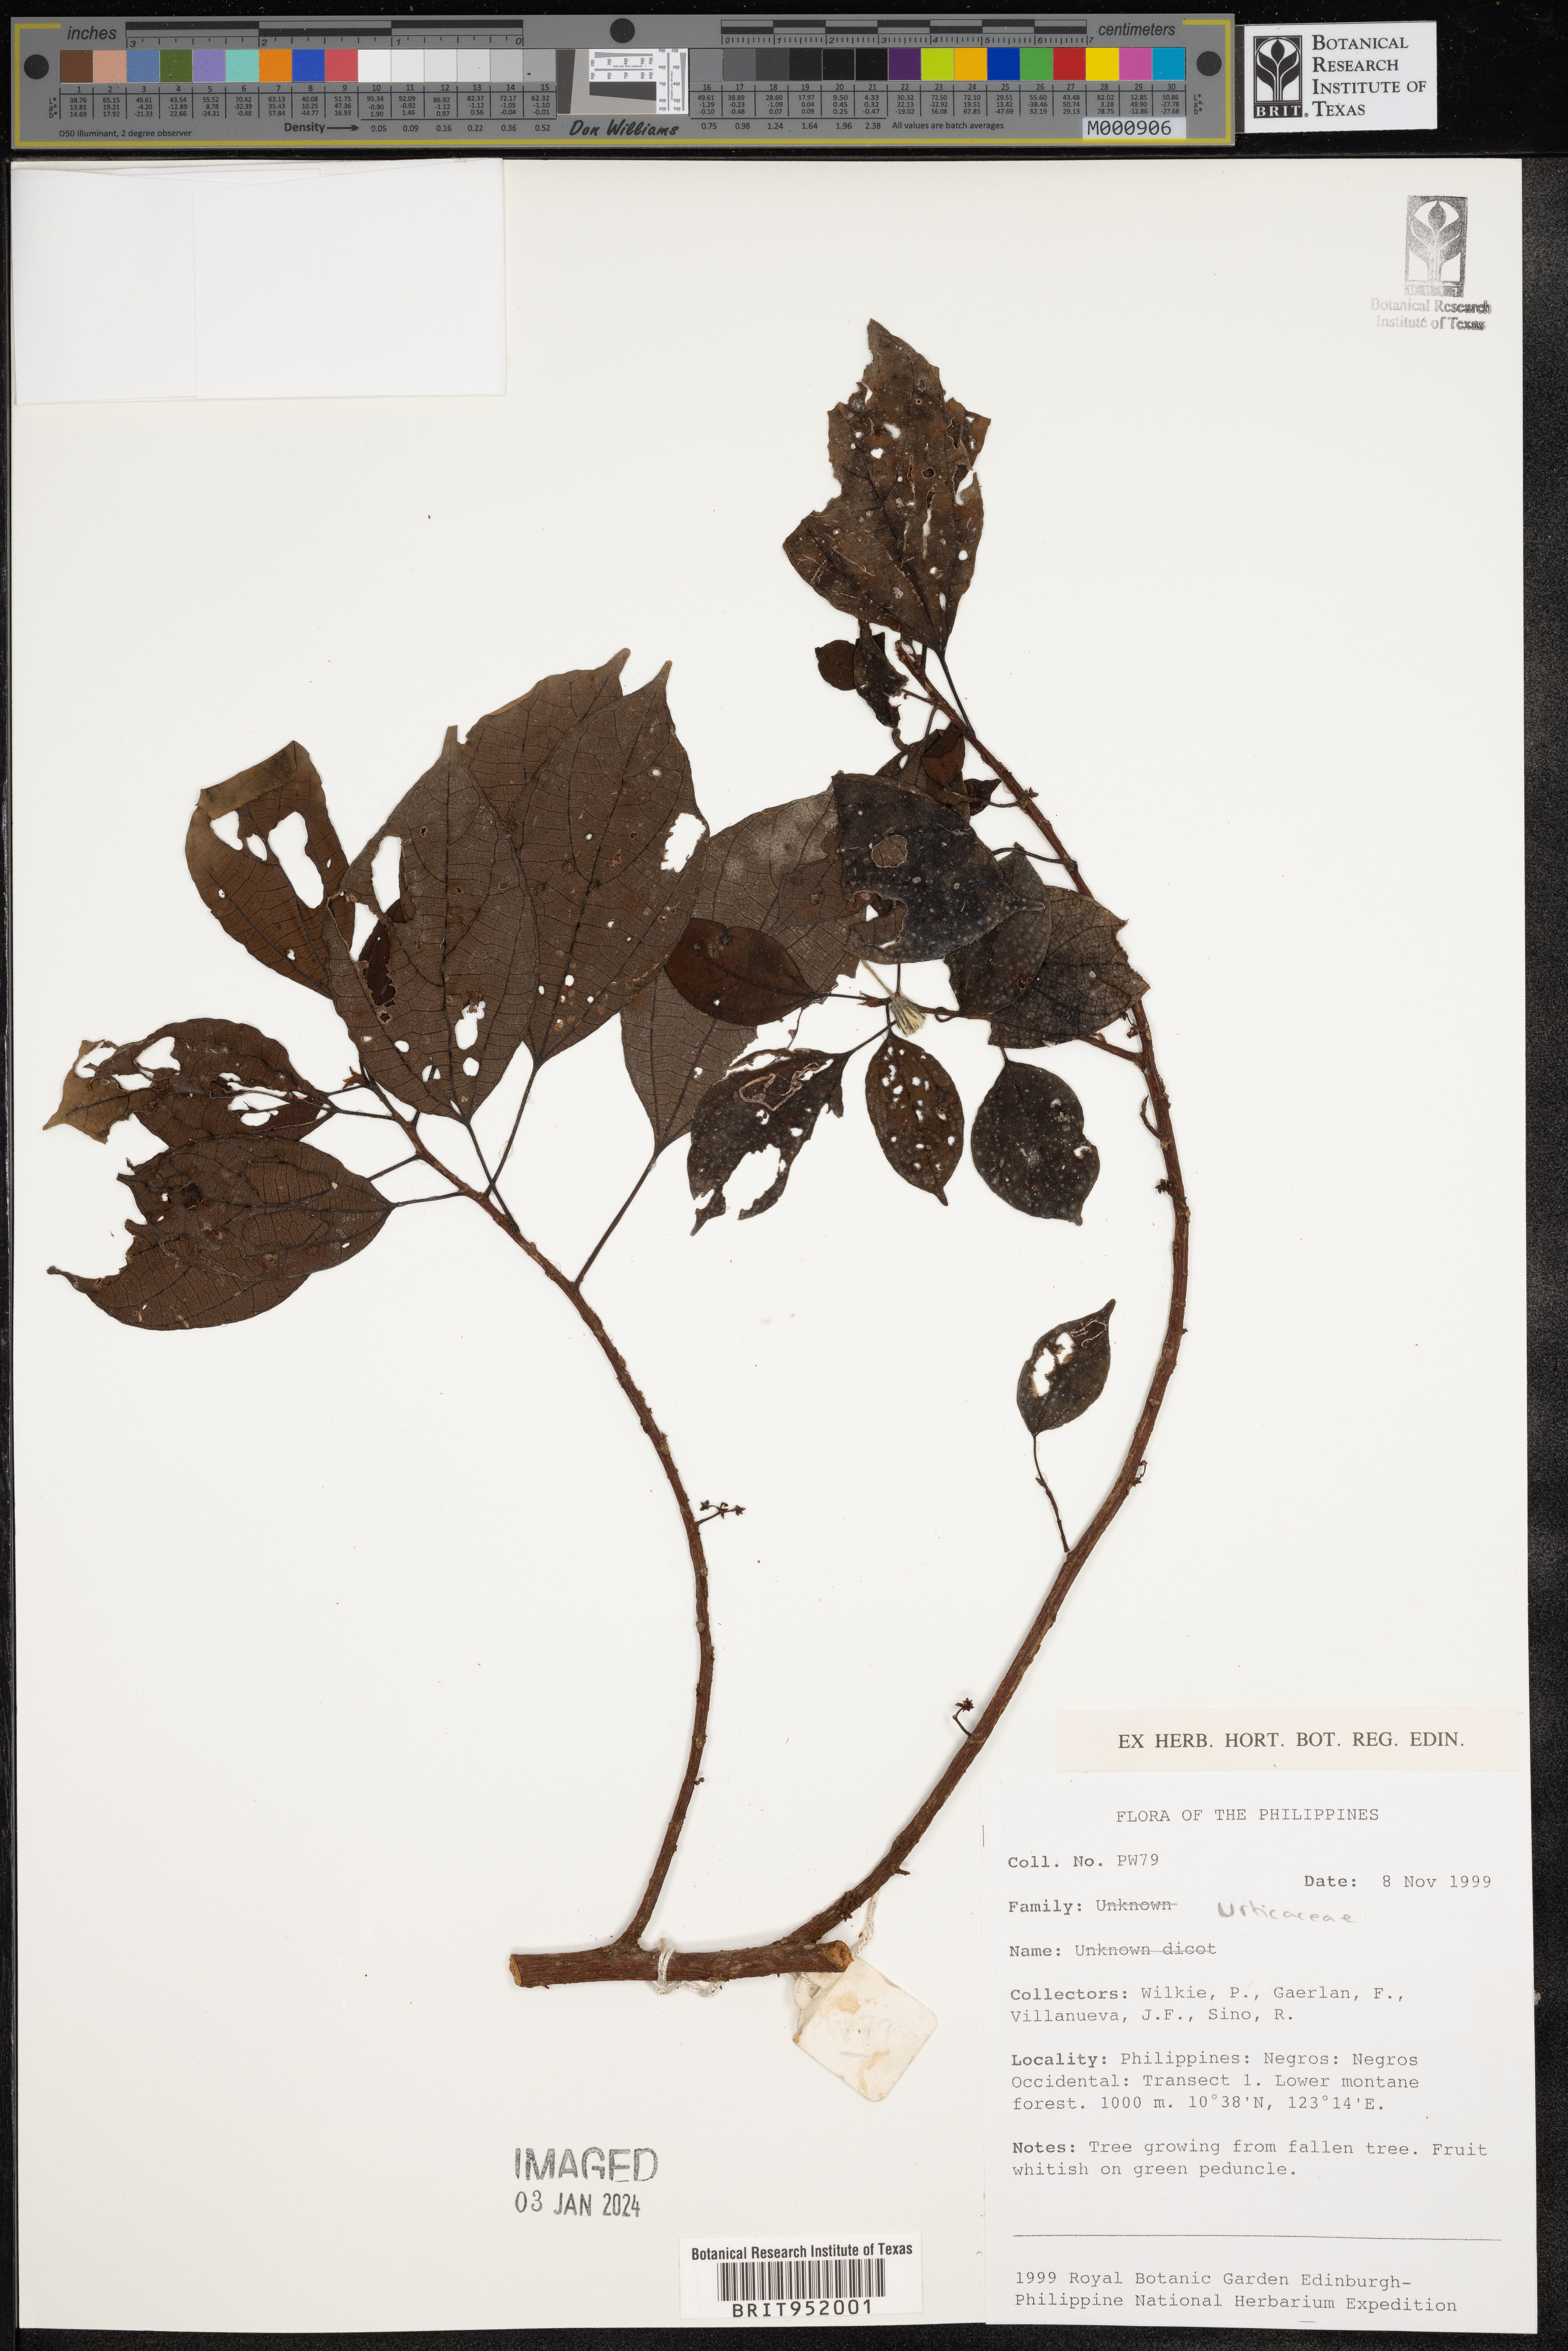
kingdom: Plantae
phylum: Tracheophyta
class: Magnoliopsida
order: Rosales
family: Urticaceae
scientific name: Urticaceae
